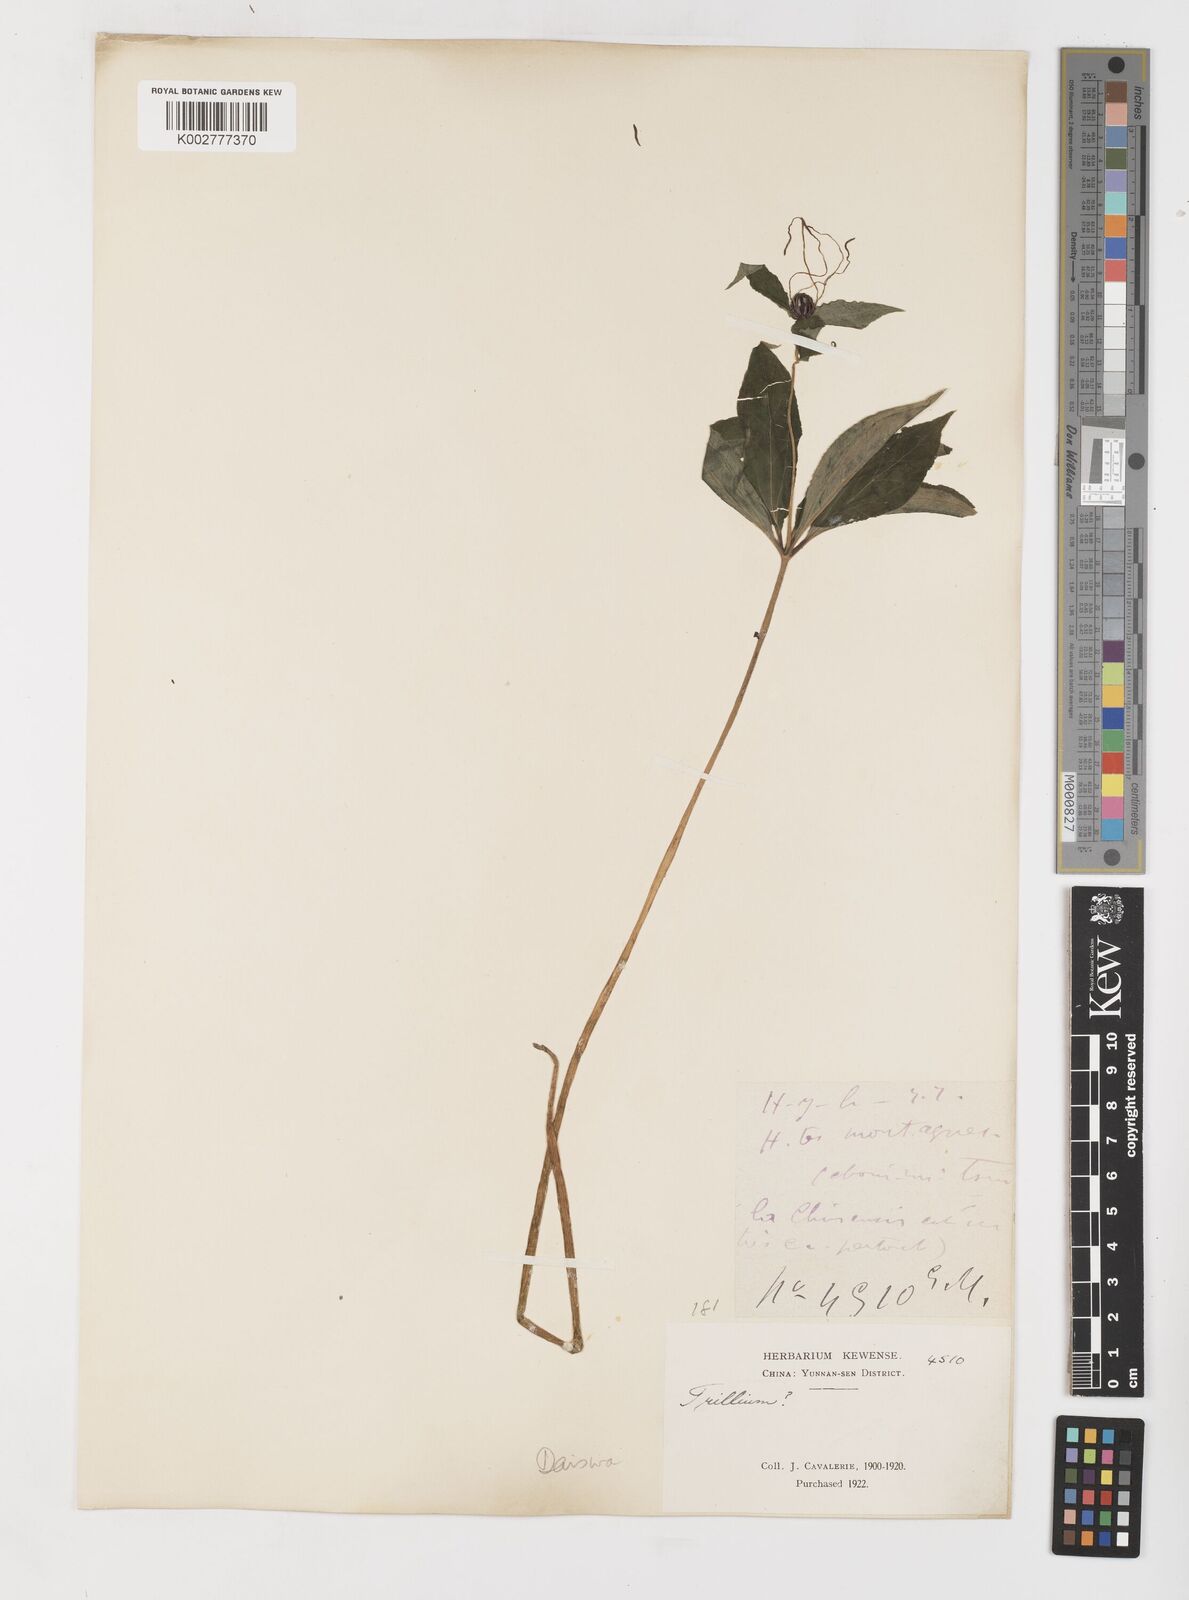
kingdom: Plantae
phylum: Tracheophyta
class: Liliopsida
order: Liliales
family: Melanthiaceae
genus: Paris
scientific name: Paris
